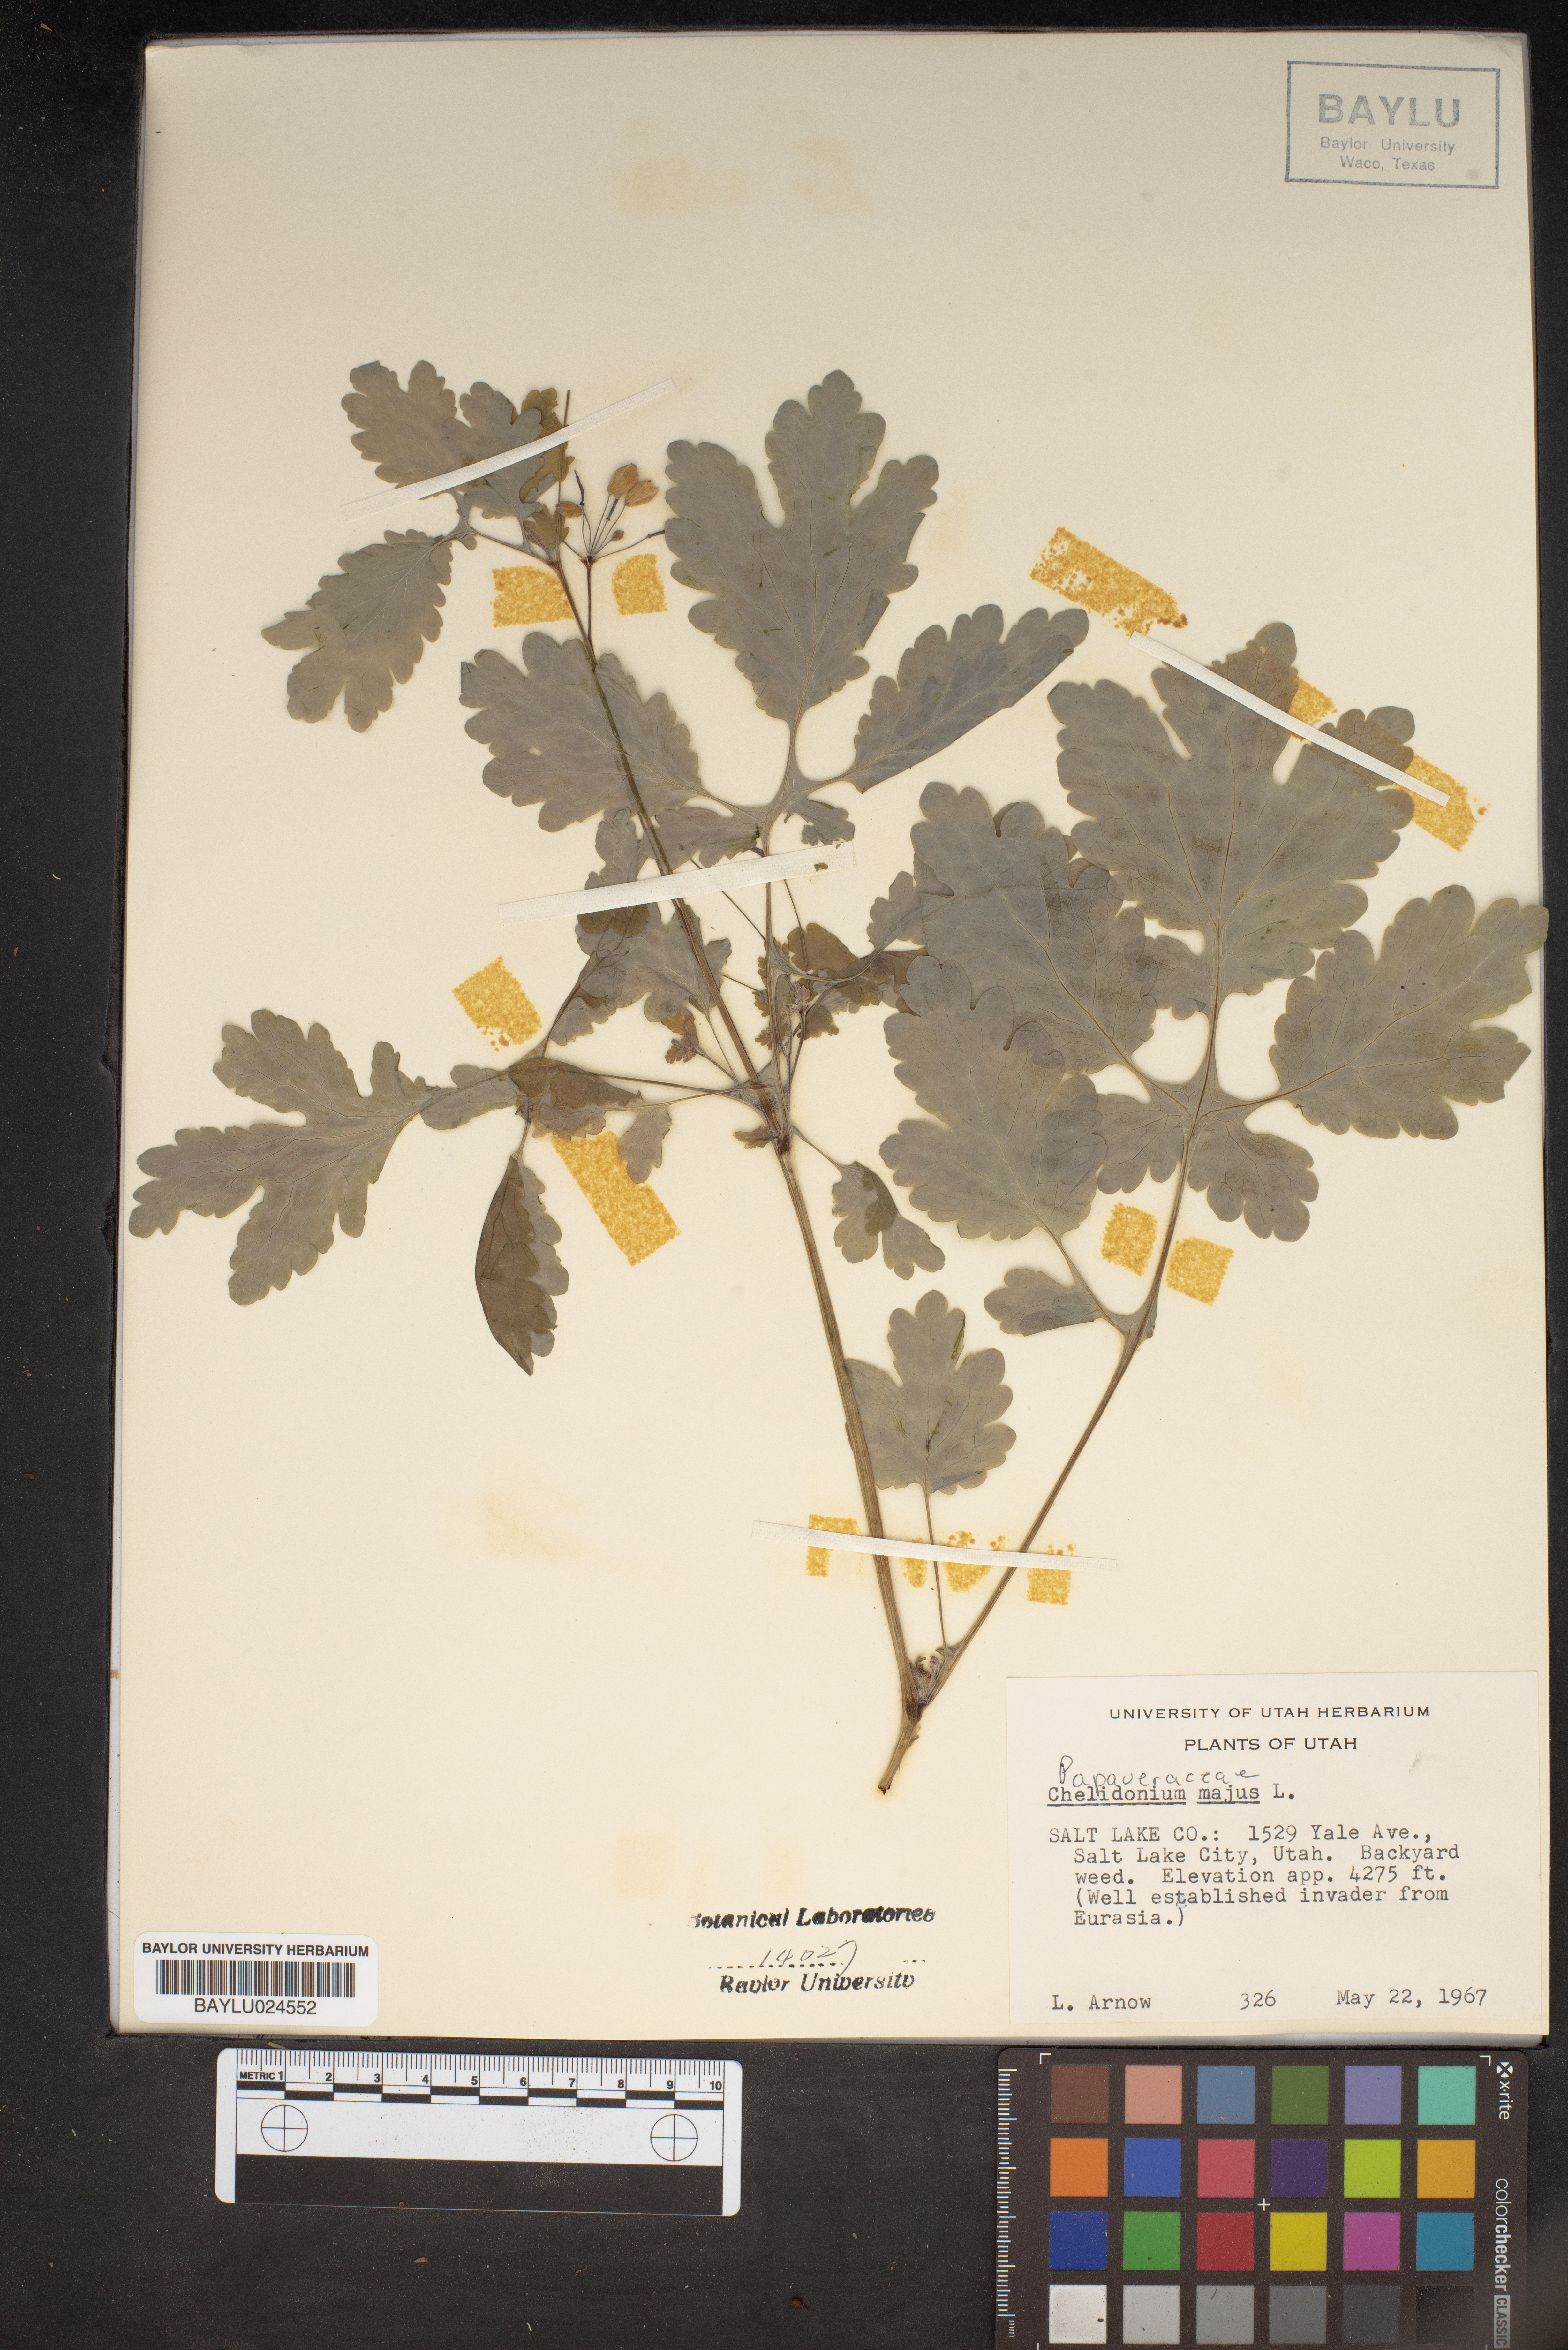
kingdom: Plantae
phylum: Tracheophyta
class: Magnoliopsida
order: Ranunculales
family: Papaveraceae
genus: Chelidonium
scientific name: Chelidonium majus
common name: Greater celandine
